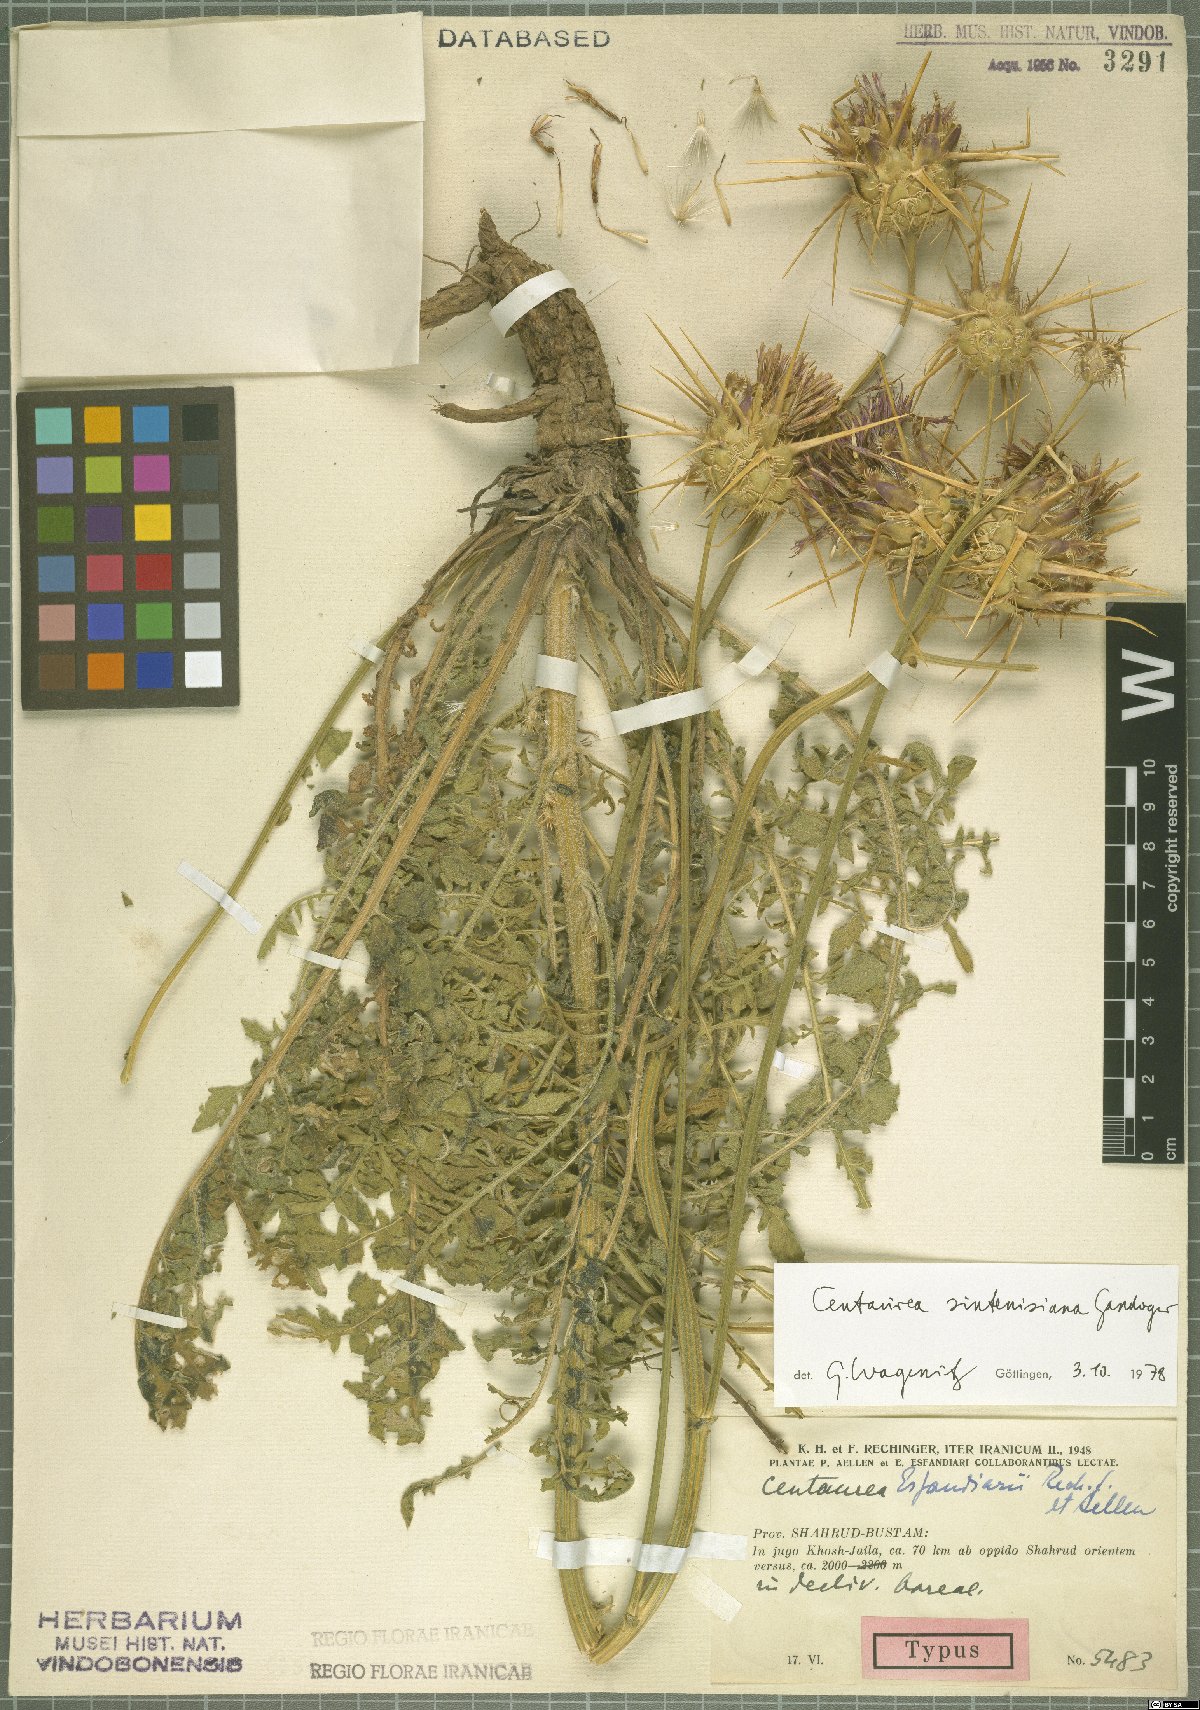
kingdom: Plantae
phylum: Tracheophyta
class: Magnoliopsida
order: Asterales
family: Asteraceae
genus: Psephellus
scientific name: Psephellus sintenisii
